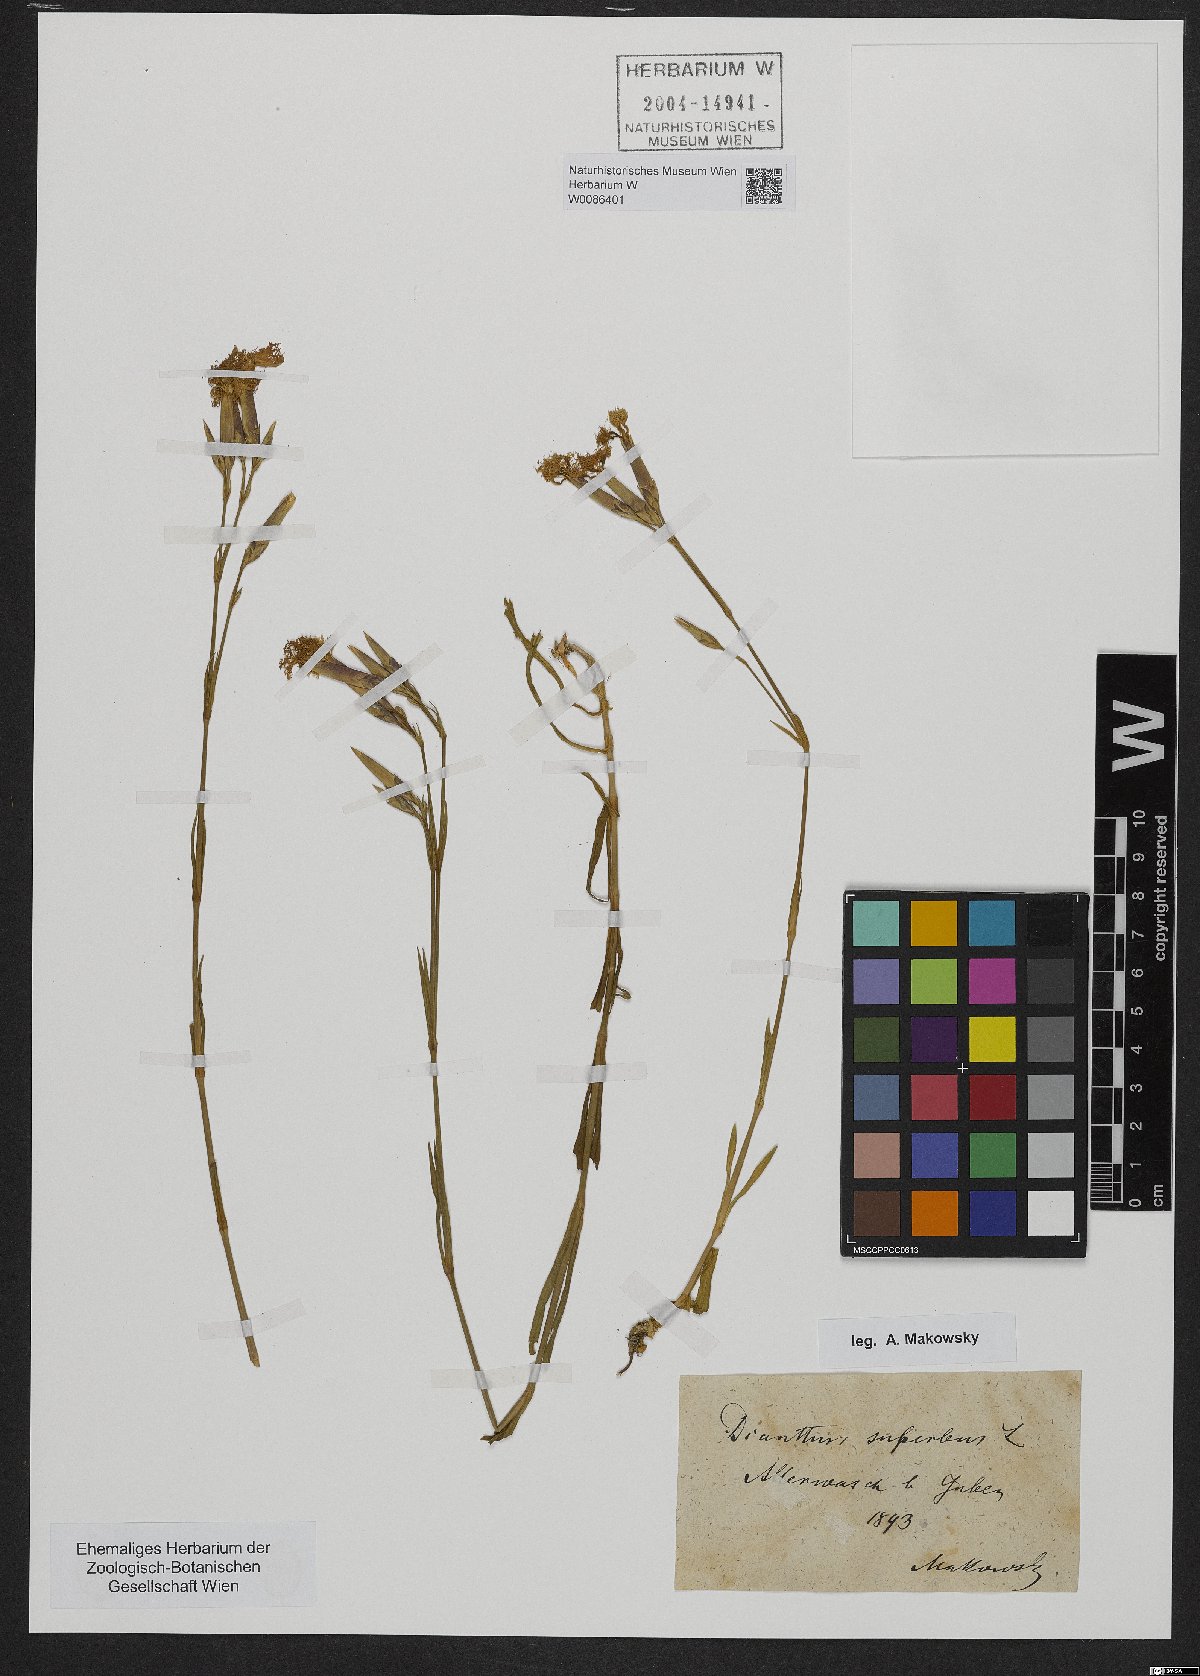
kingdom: Plantae
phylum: Tracheophyta
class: Magnoliopsida
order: Caryophyllales
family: Caryophyllaceae
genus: Dianthus
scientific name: Dianthus superbus
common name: Fringed pink
